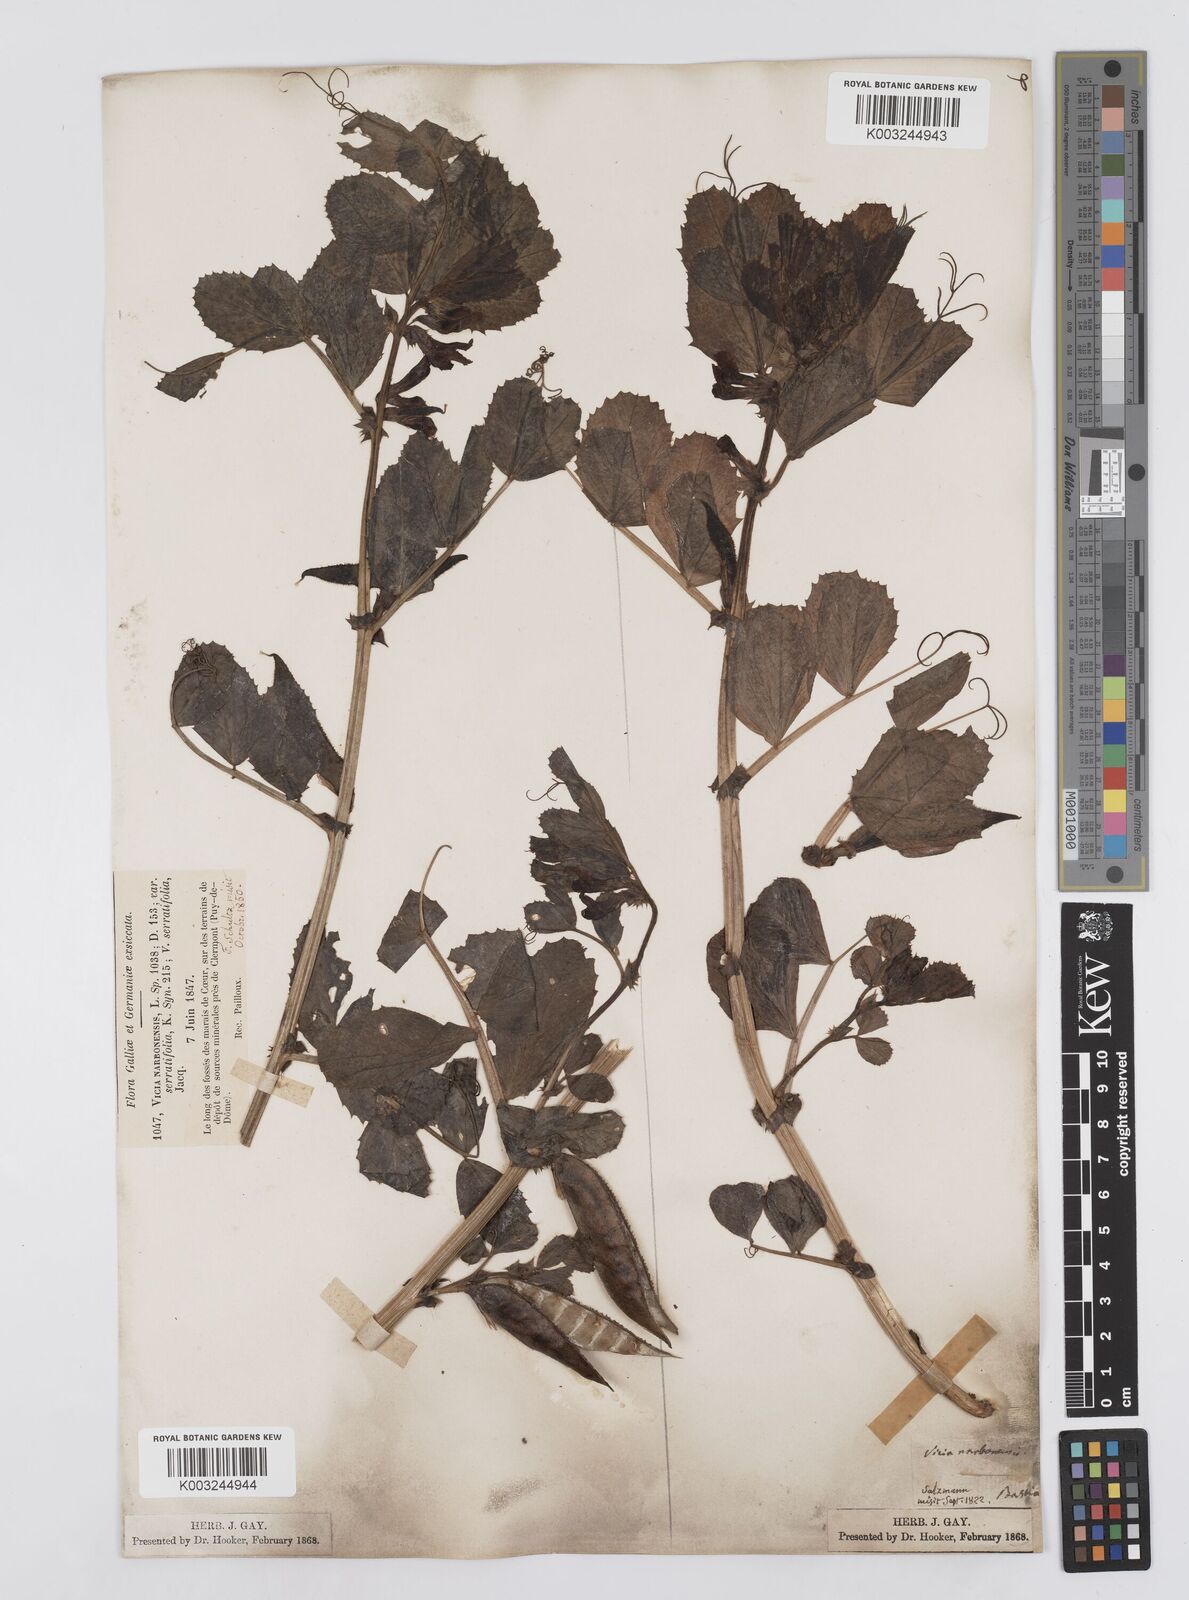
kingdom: Plantae
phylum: Tracheophyta
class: Magnoliopsida
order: Fabales
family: Fabaceae
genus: Vicia
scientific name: Vicia serratifolia
